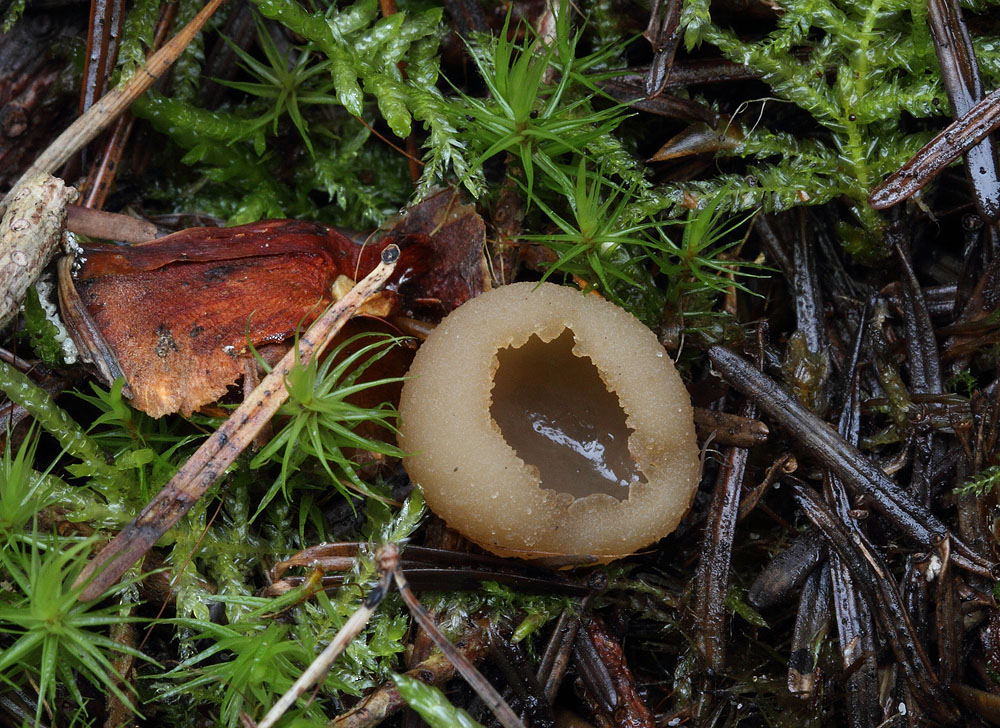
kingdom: Fungi
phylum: Ascomycota
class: Pezizomycetes
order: Pezizales
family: Pezizaceae
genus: Peziza
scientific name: Peziza fimeti
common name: møg-bægersvamp
